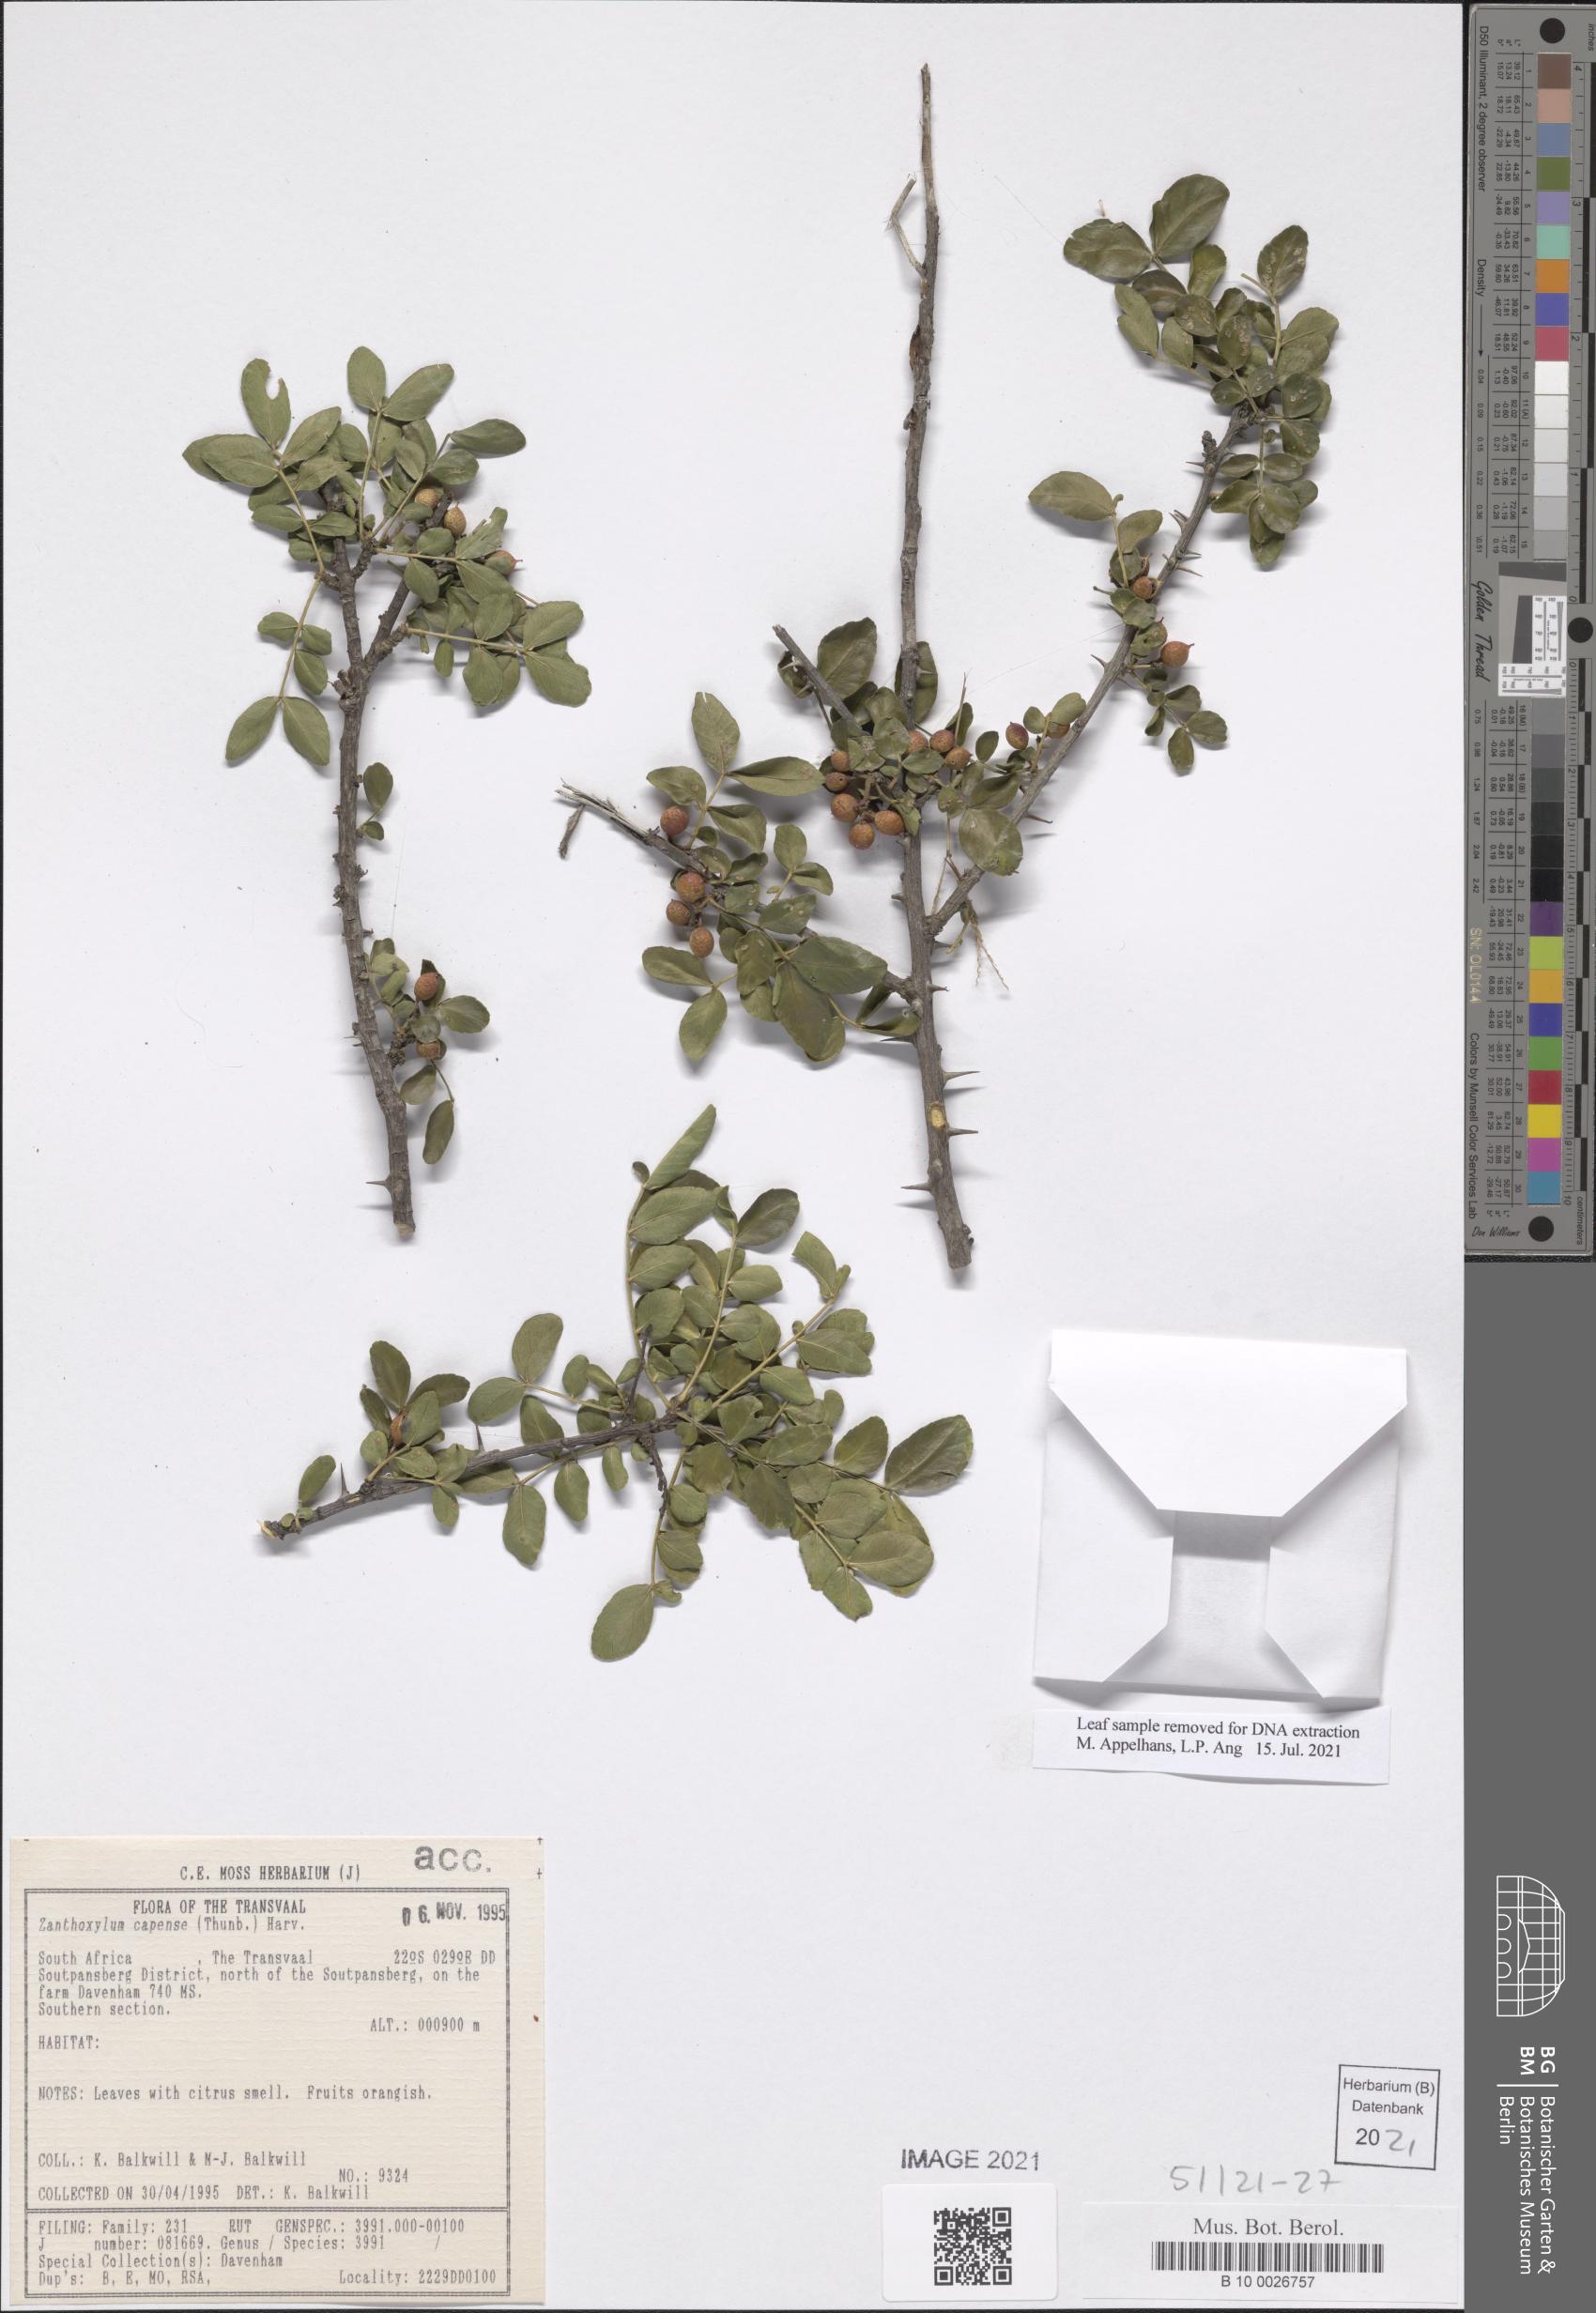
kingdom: Plantae
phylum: Tracheophyta
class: Magnoliopsida
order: Sapindales
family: Rutaceae
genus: Zanthoxylum
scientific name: Zanthoxylum capense
